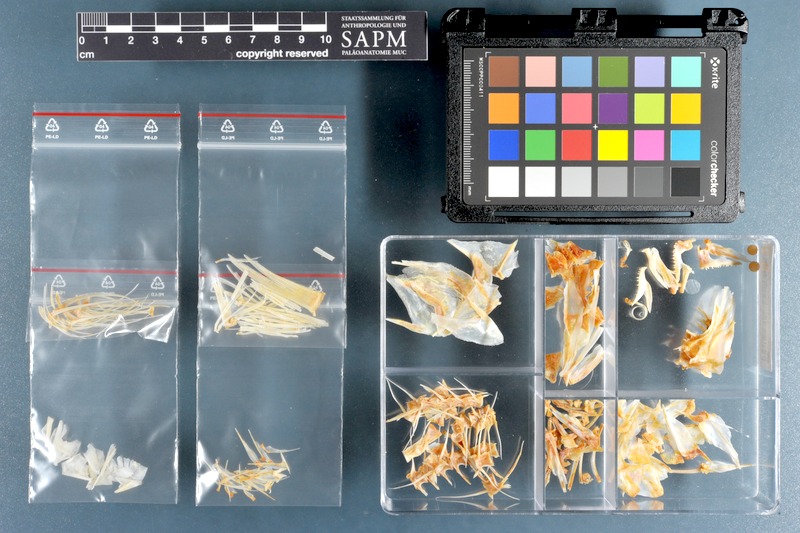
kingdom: Animalia
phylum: Chordata
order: Perciformes
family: Mullidae
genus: Parupeneus
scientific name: Parupeneus heptacanthus
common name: Cinnabar goatfish
